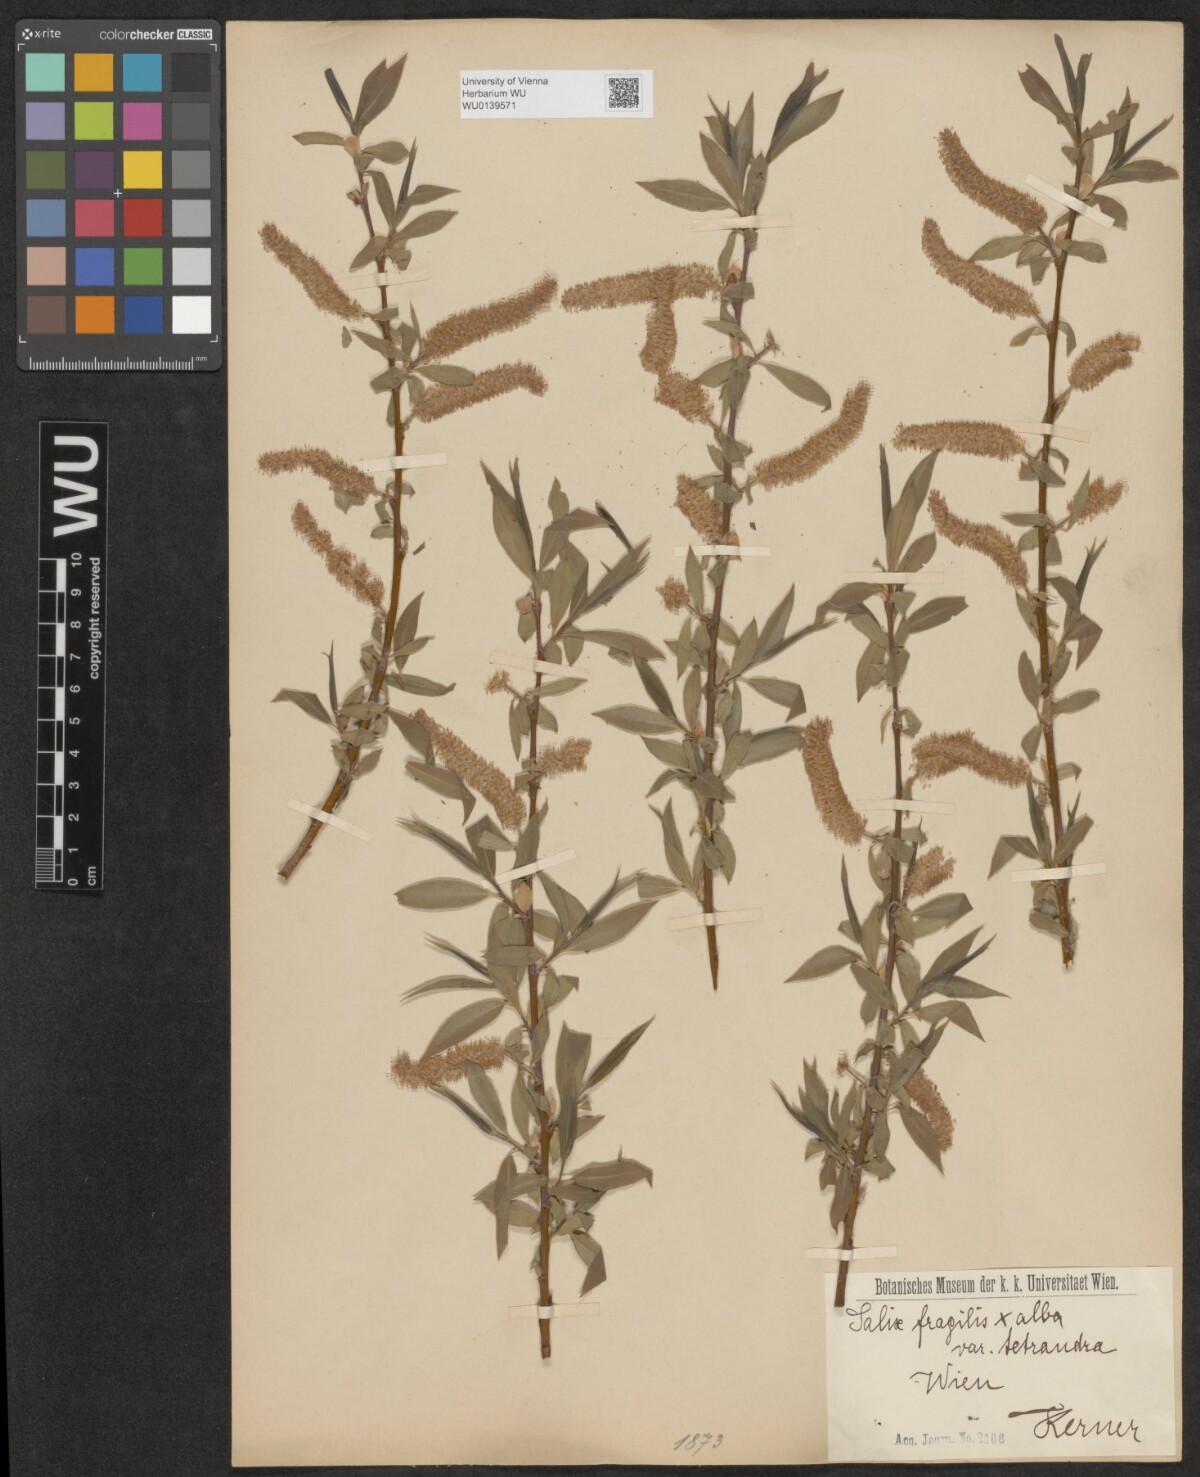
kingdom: Plantae
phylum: Tracheophyta
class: Magnoliopsida
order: Malpighiales
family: Salicaceae
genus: Salix
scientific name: Salix rubens
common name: Hybrid crack willow
